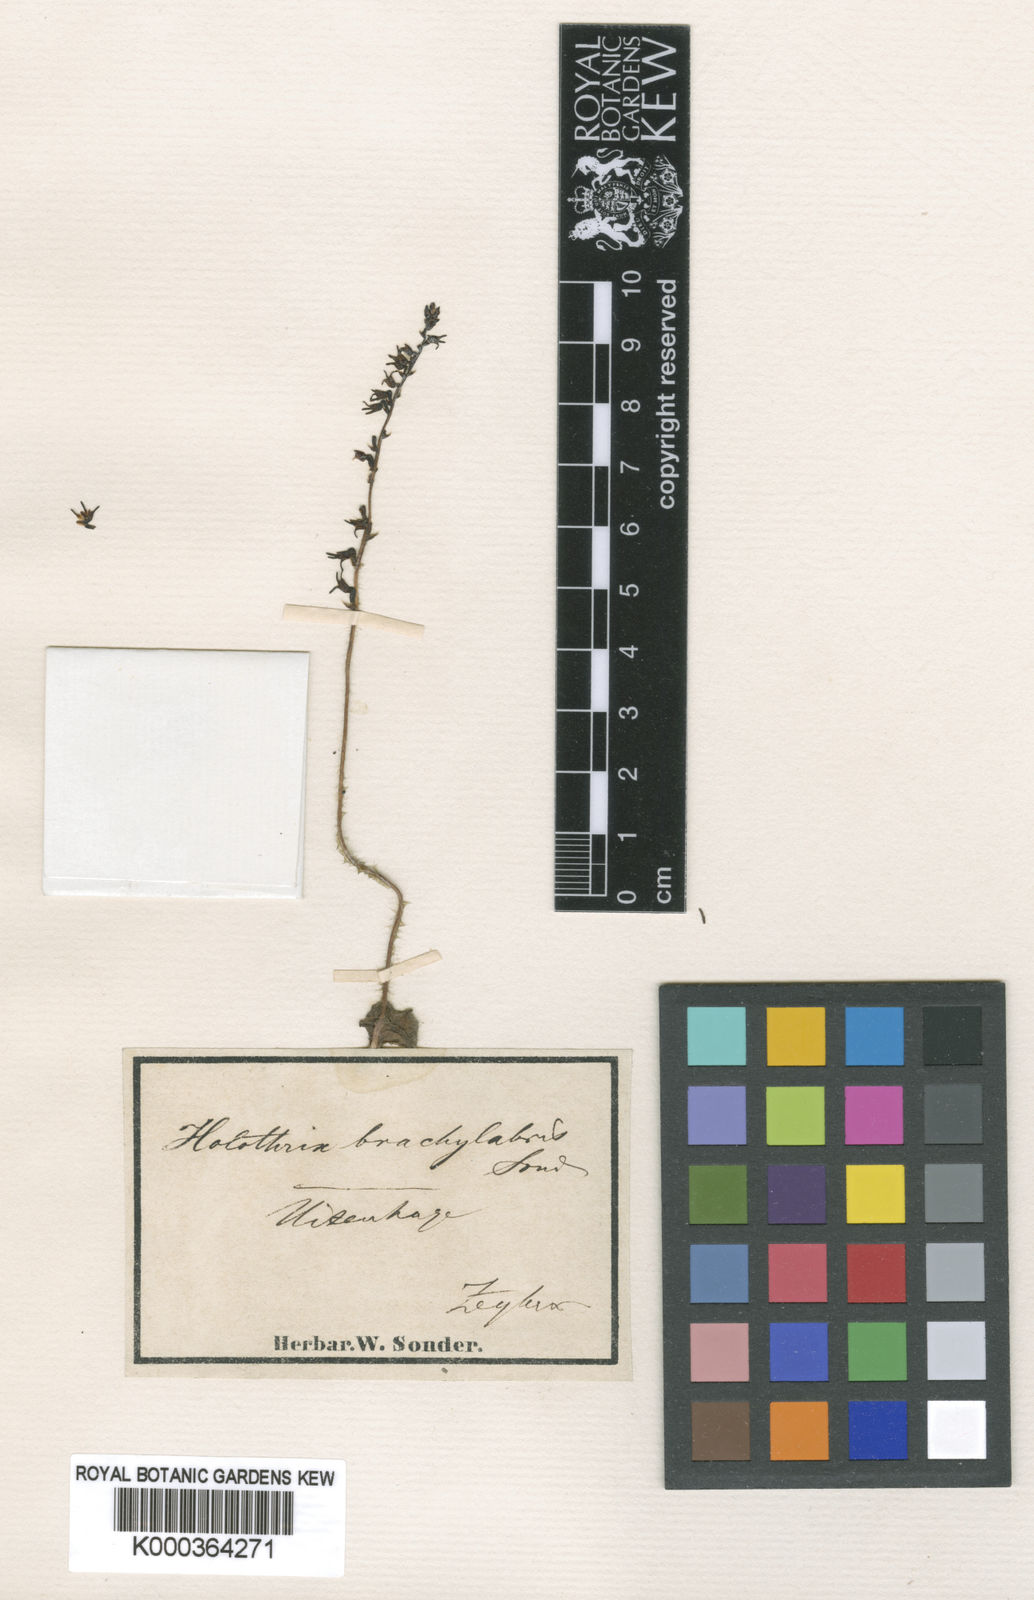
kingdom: Plantae
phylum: Tracheophyta
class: Liliopsida
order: Asparagales
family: Orchidaceae
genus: Holothrix
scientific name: Holothrix exilis
